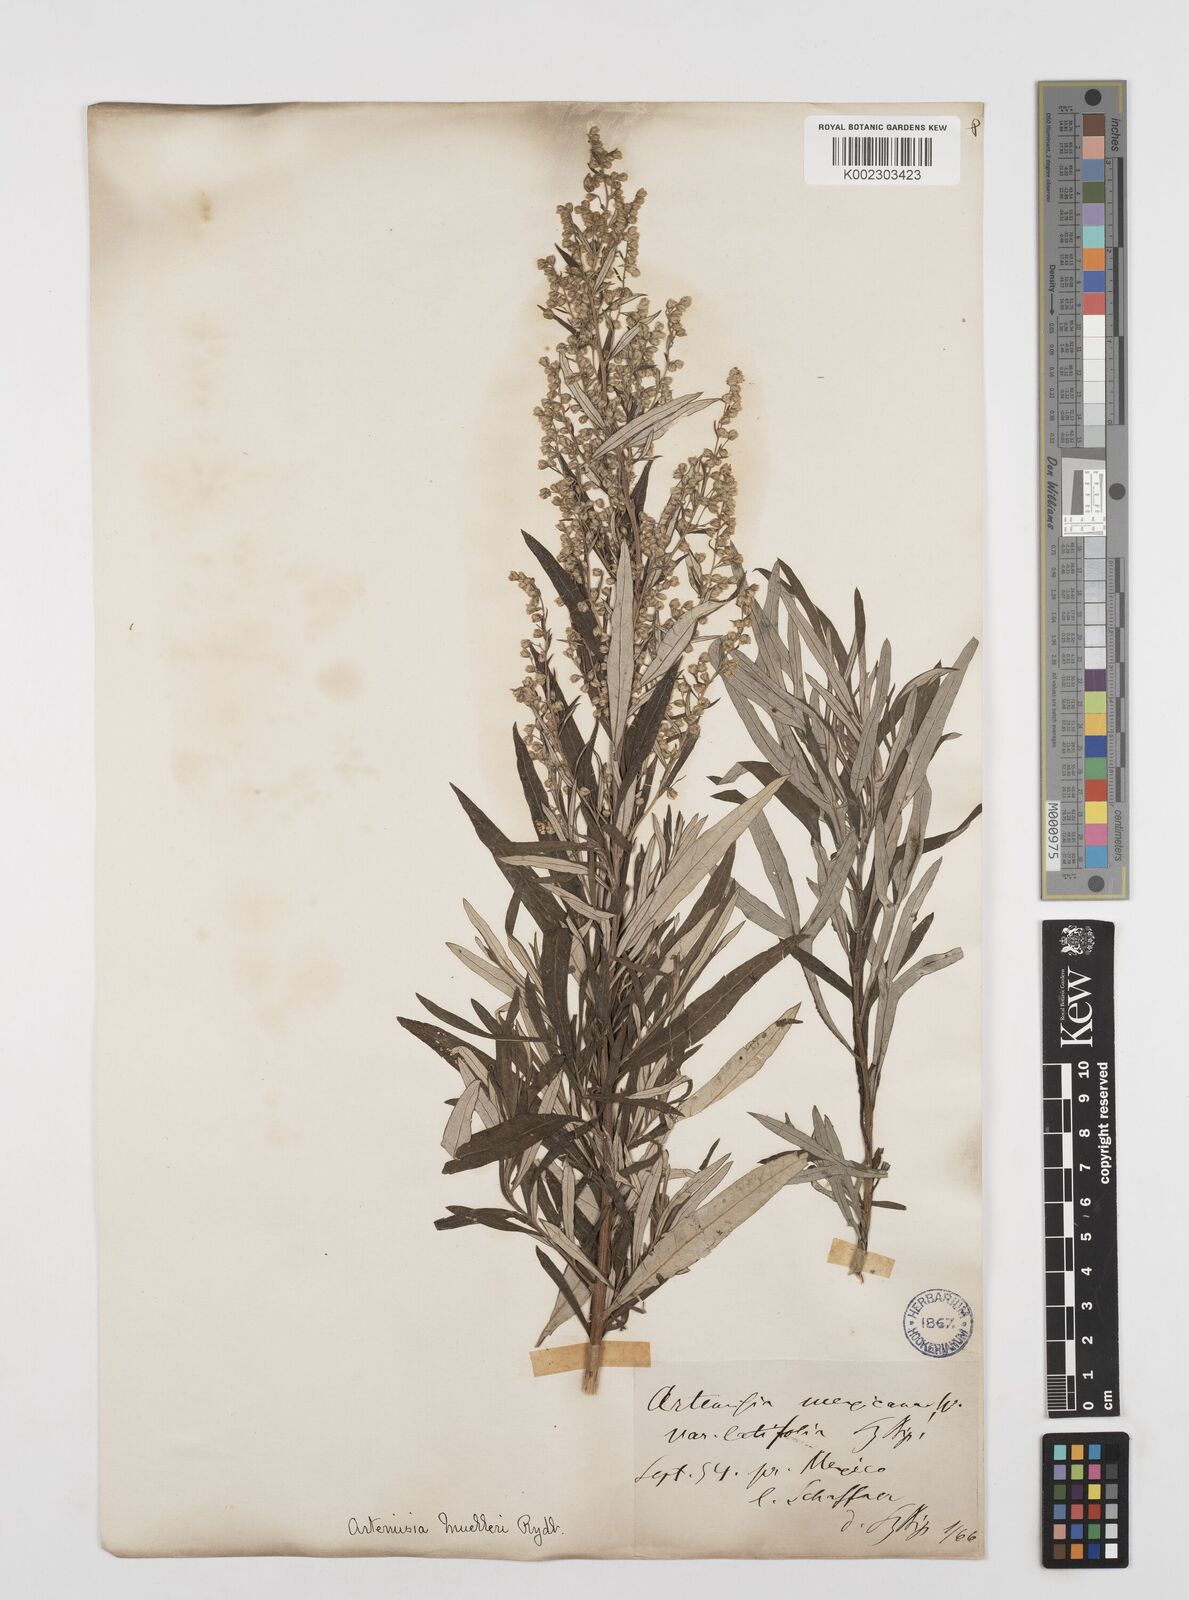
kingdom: Plantae
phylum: Tracheophyta
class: Magnoliopsida
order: Asterales
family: Asteraceae
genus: Artemisia
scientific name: Artemisia ludoviciana
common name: Western mugwort
